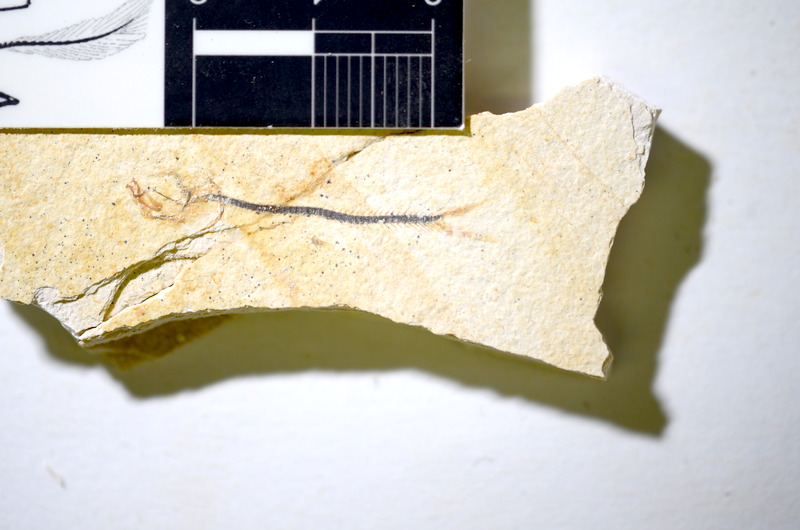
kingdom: Animalia
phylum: Chordata
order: Salmoniformes
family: Orthogonikleithridae
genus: Orthogonikleithrus
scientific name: Orthogonikleithrus hoelli
